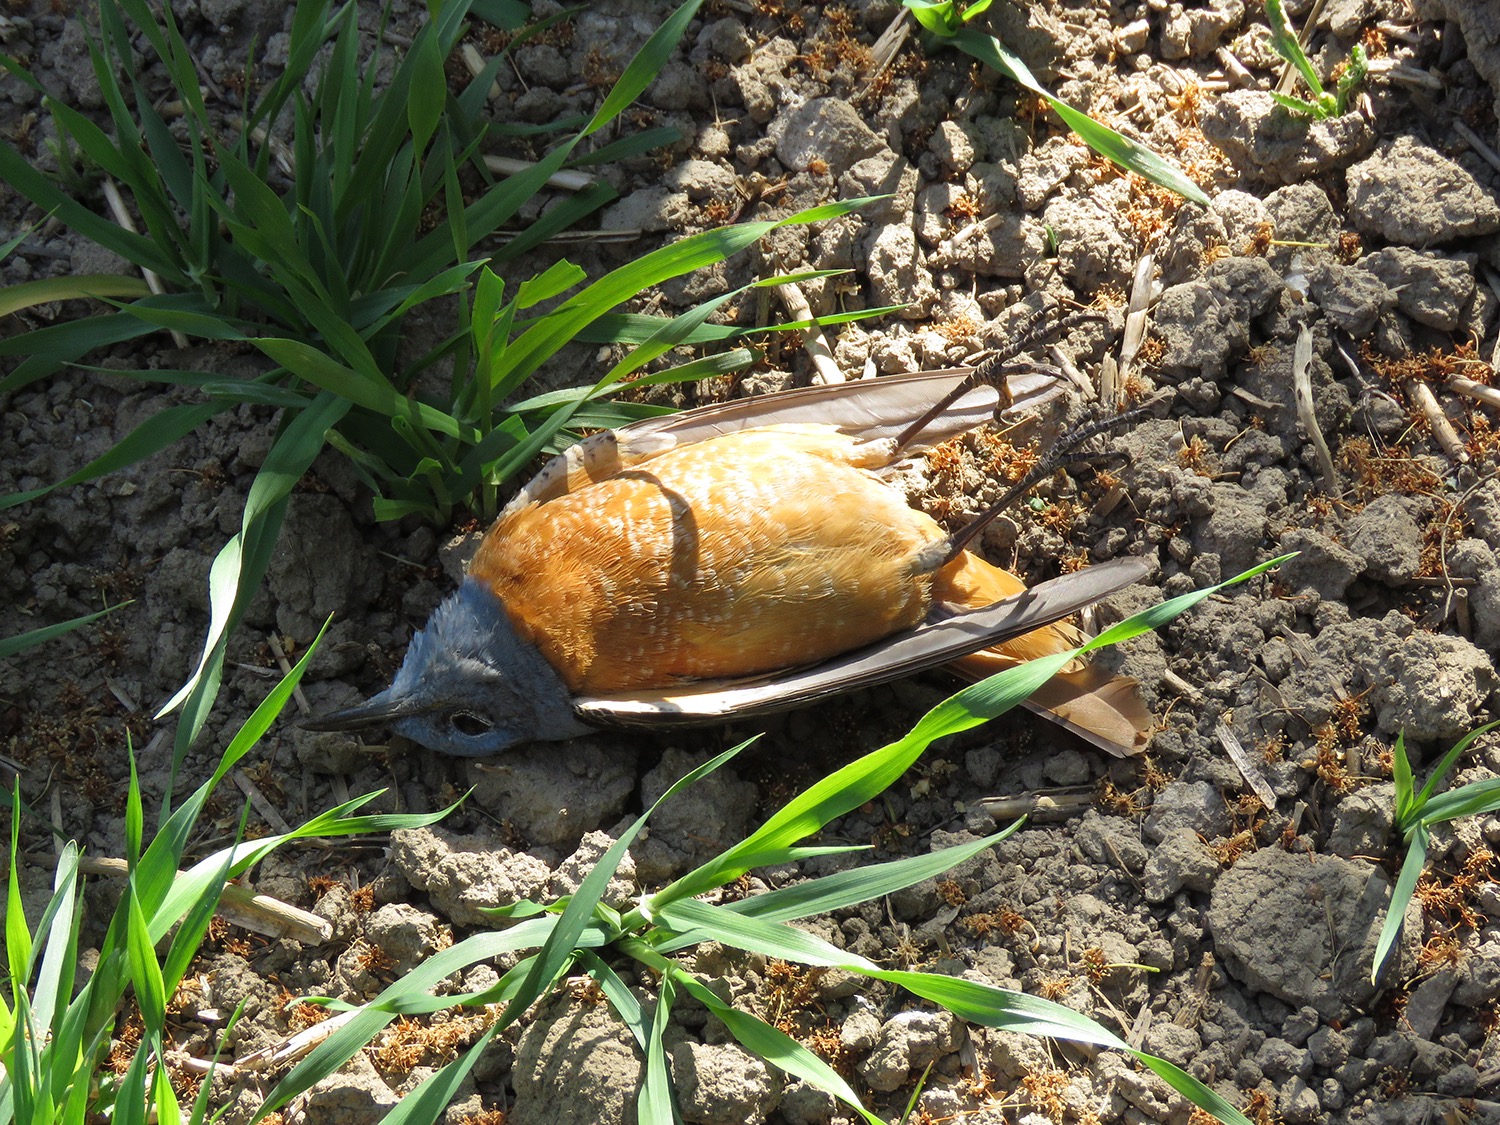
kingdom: Animalia
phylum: Chordata
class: Aves
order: Passeriformes
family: Muscicapidae
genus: Monticola
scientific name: Monticola saxatilis
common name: Stendrossel
